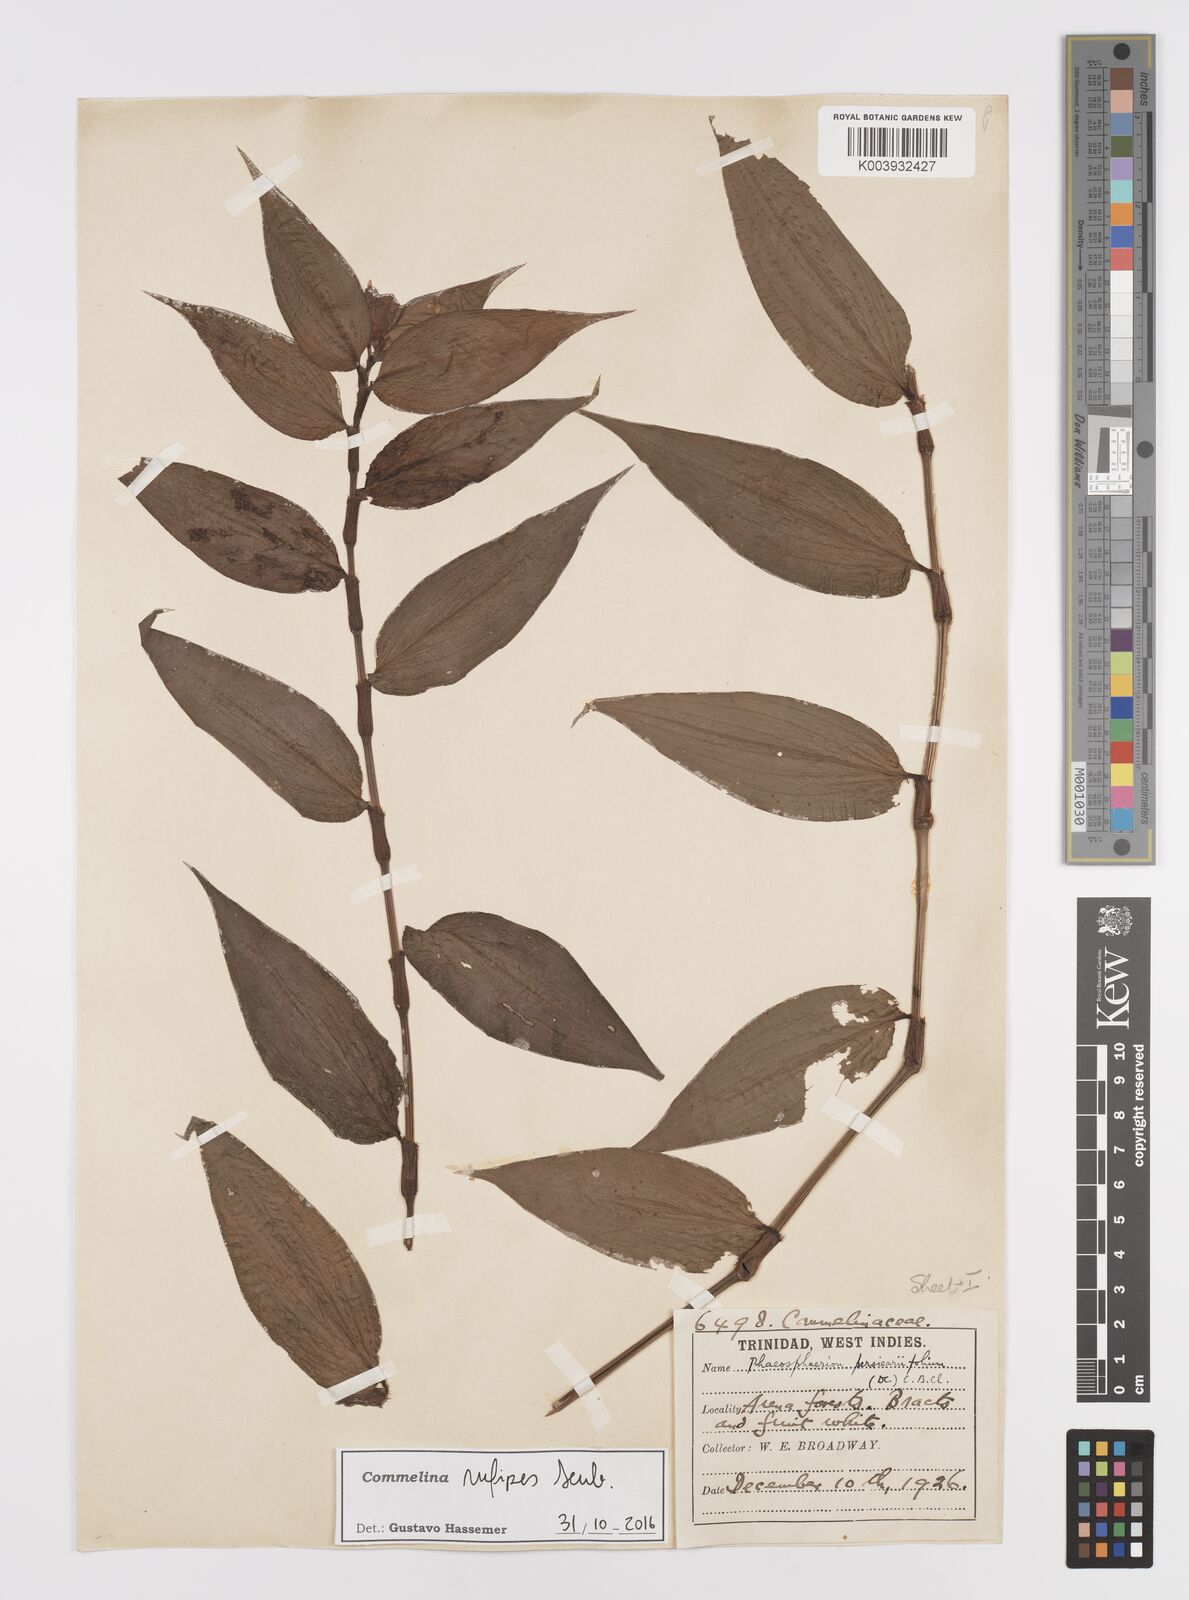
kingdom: Plantae
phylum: Tracheophyta
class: Liliopsida
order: Commelinales
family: Commelinaceae
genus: Commelina
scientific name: Commelina rufipes
